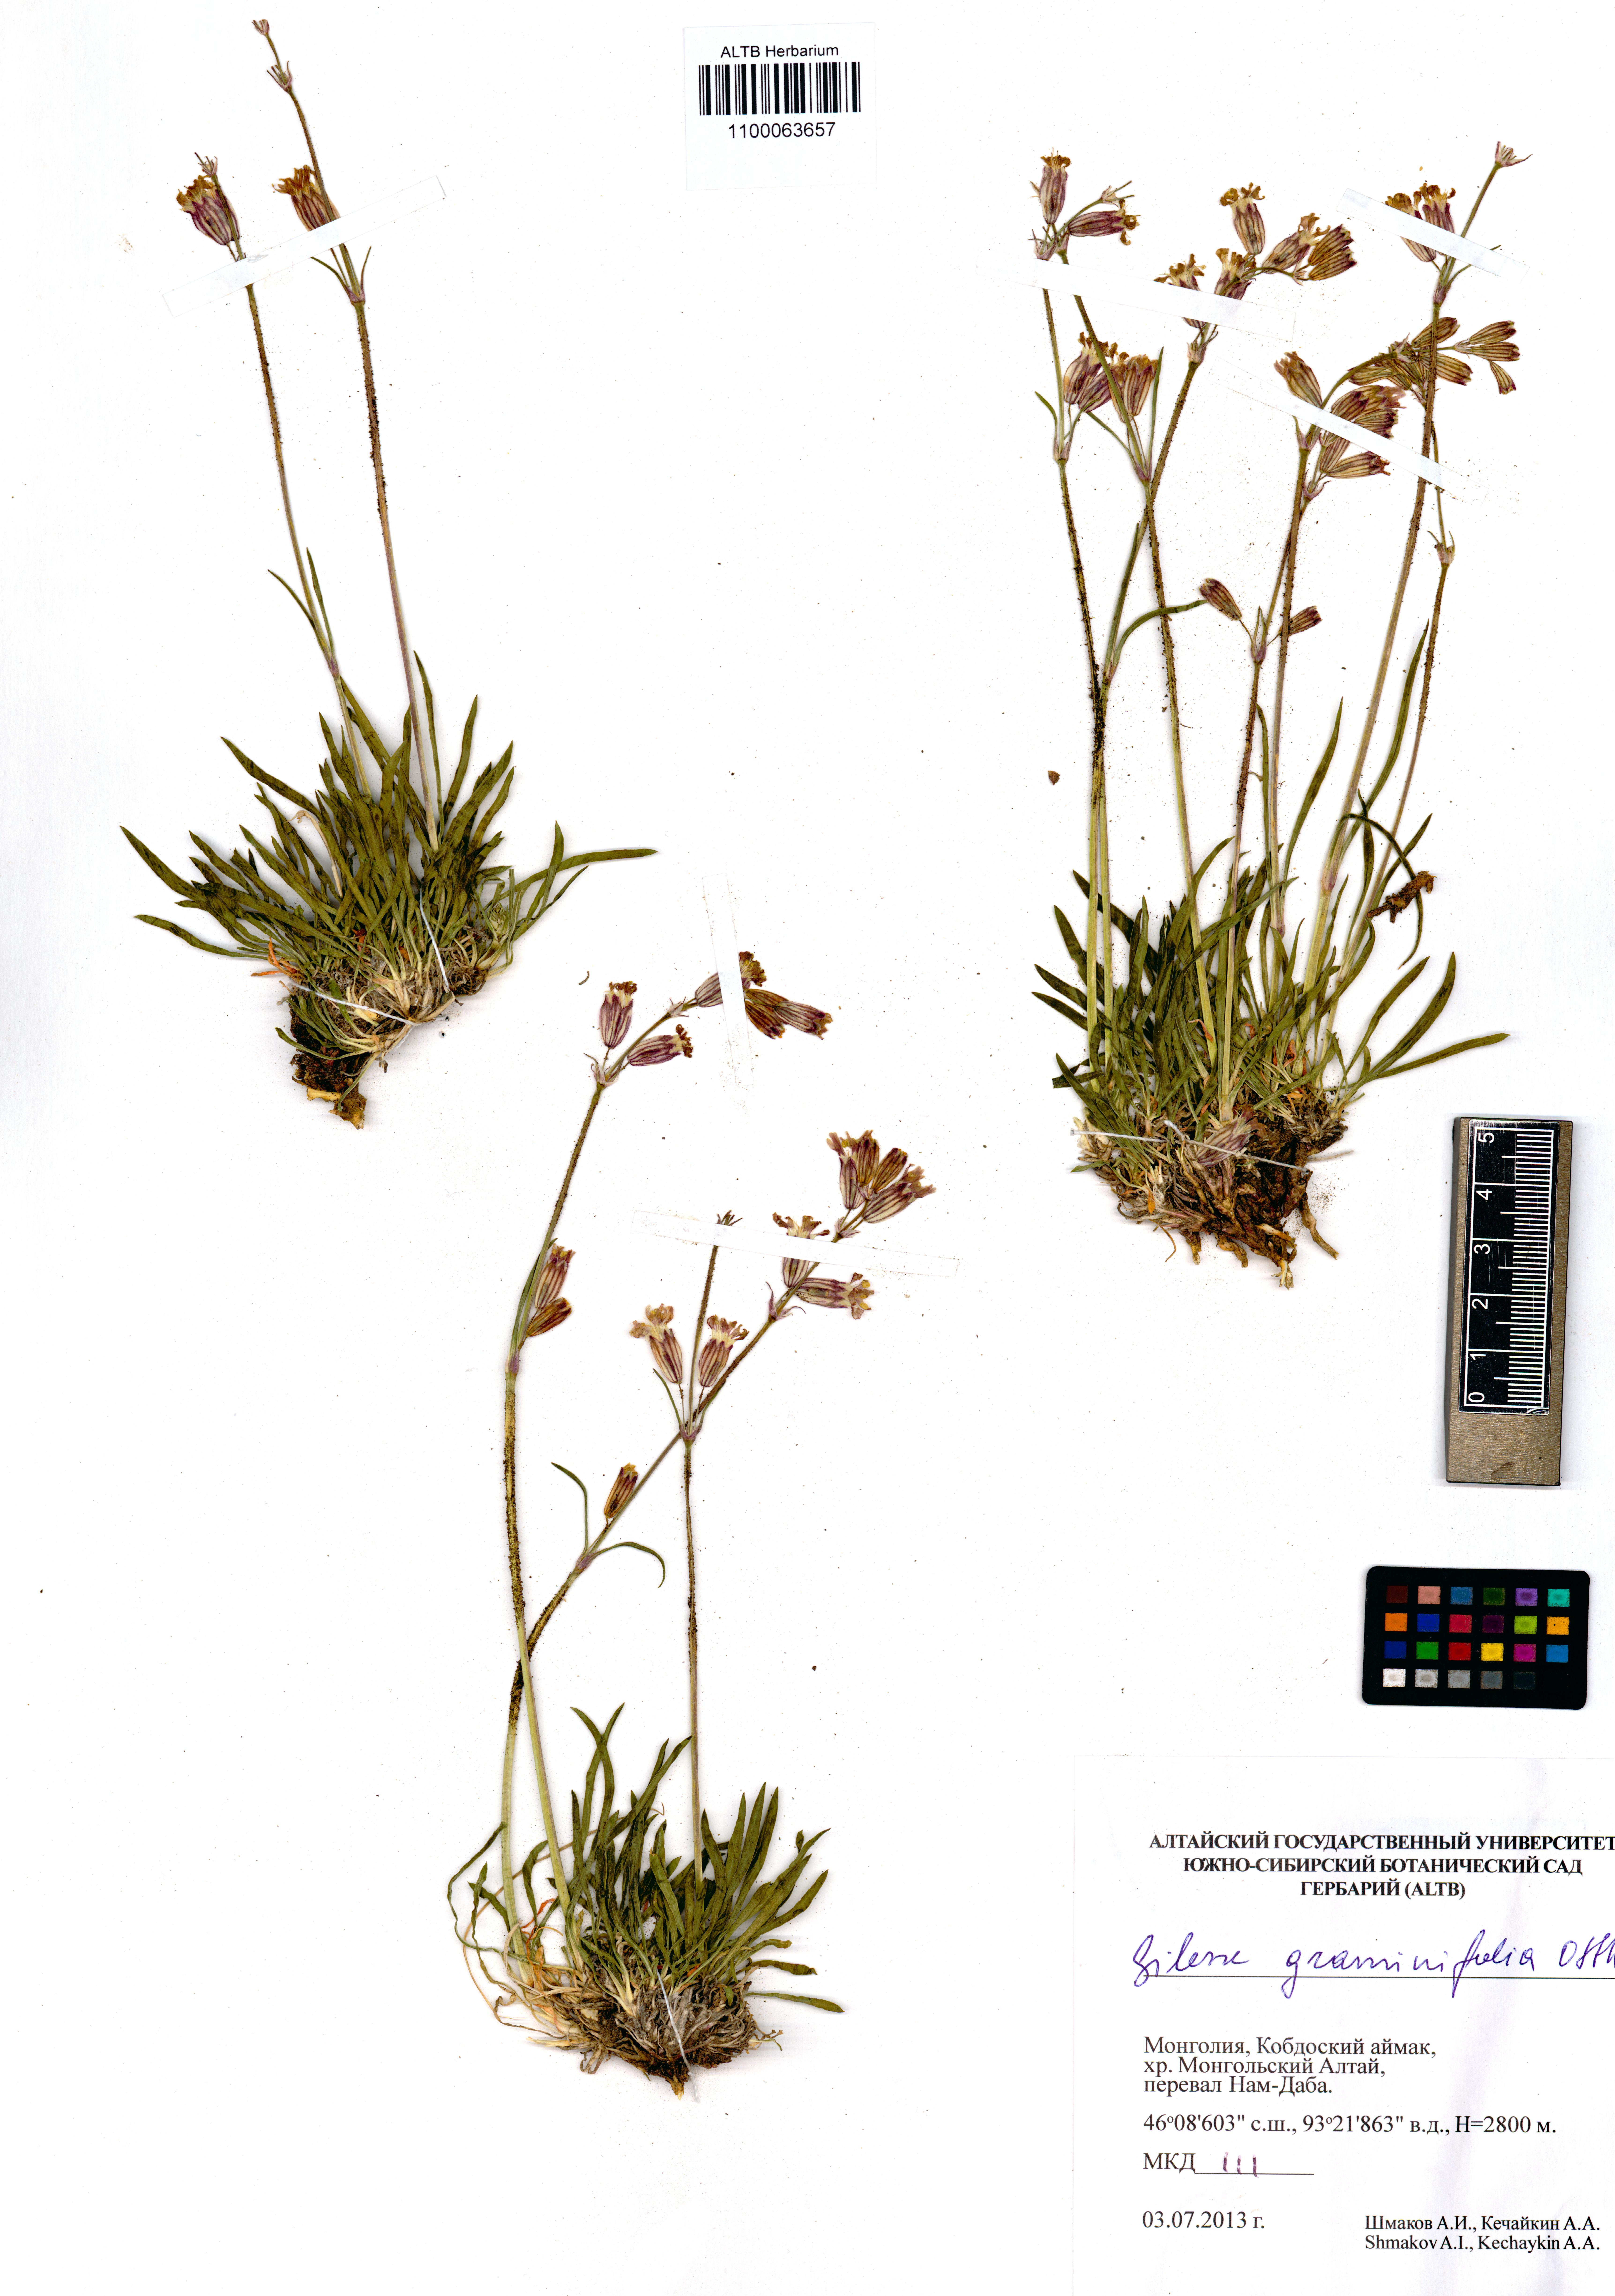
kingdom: Plantae
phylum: Tracheophyta
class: Magnoliopsida
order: Caryophyllales
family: Caryophyllaceae
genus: Silene
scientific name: Silene graminifolia
